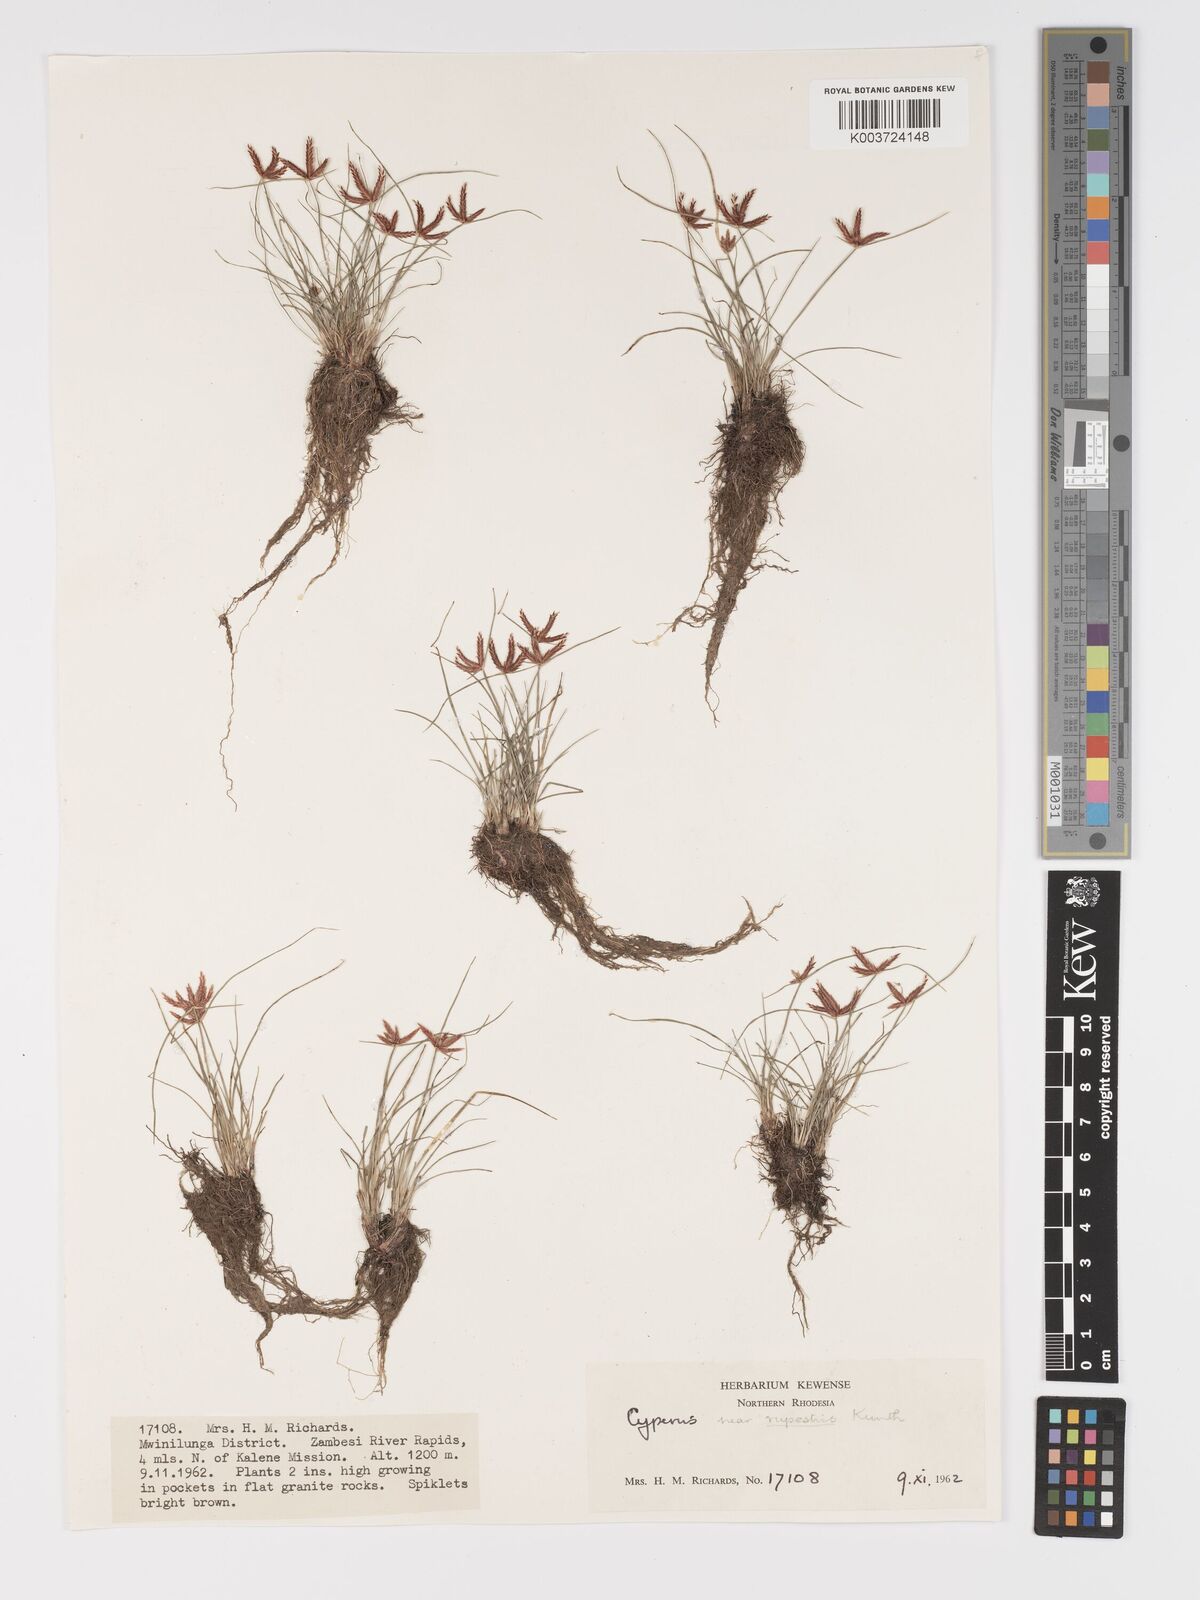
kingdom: Plantae
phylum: Tracheophyta
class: Liliopsida
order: Poales
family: Cyperaceae
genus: Cyperus
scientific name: Cyperus semitrifidus
